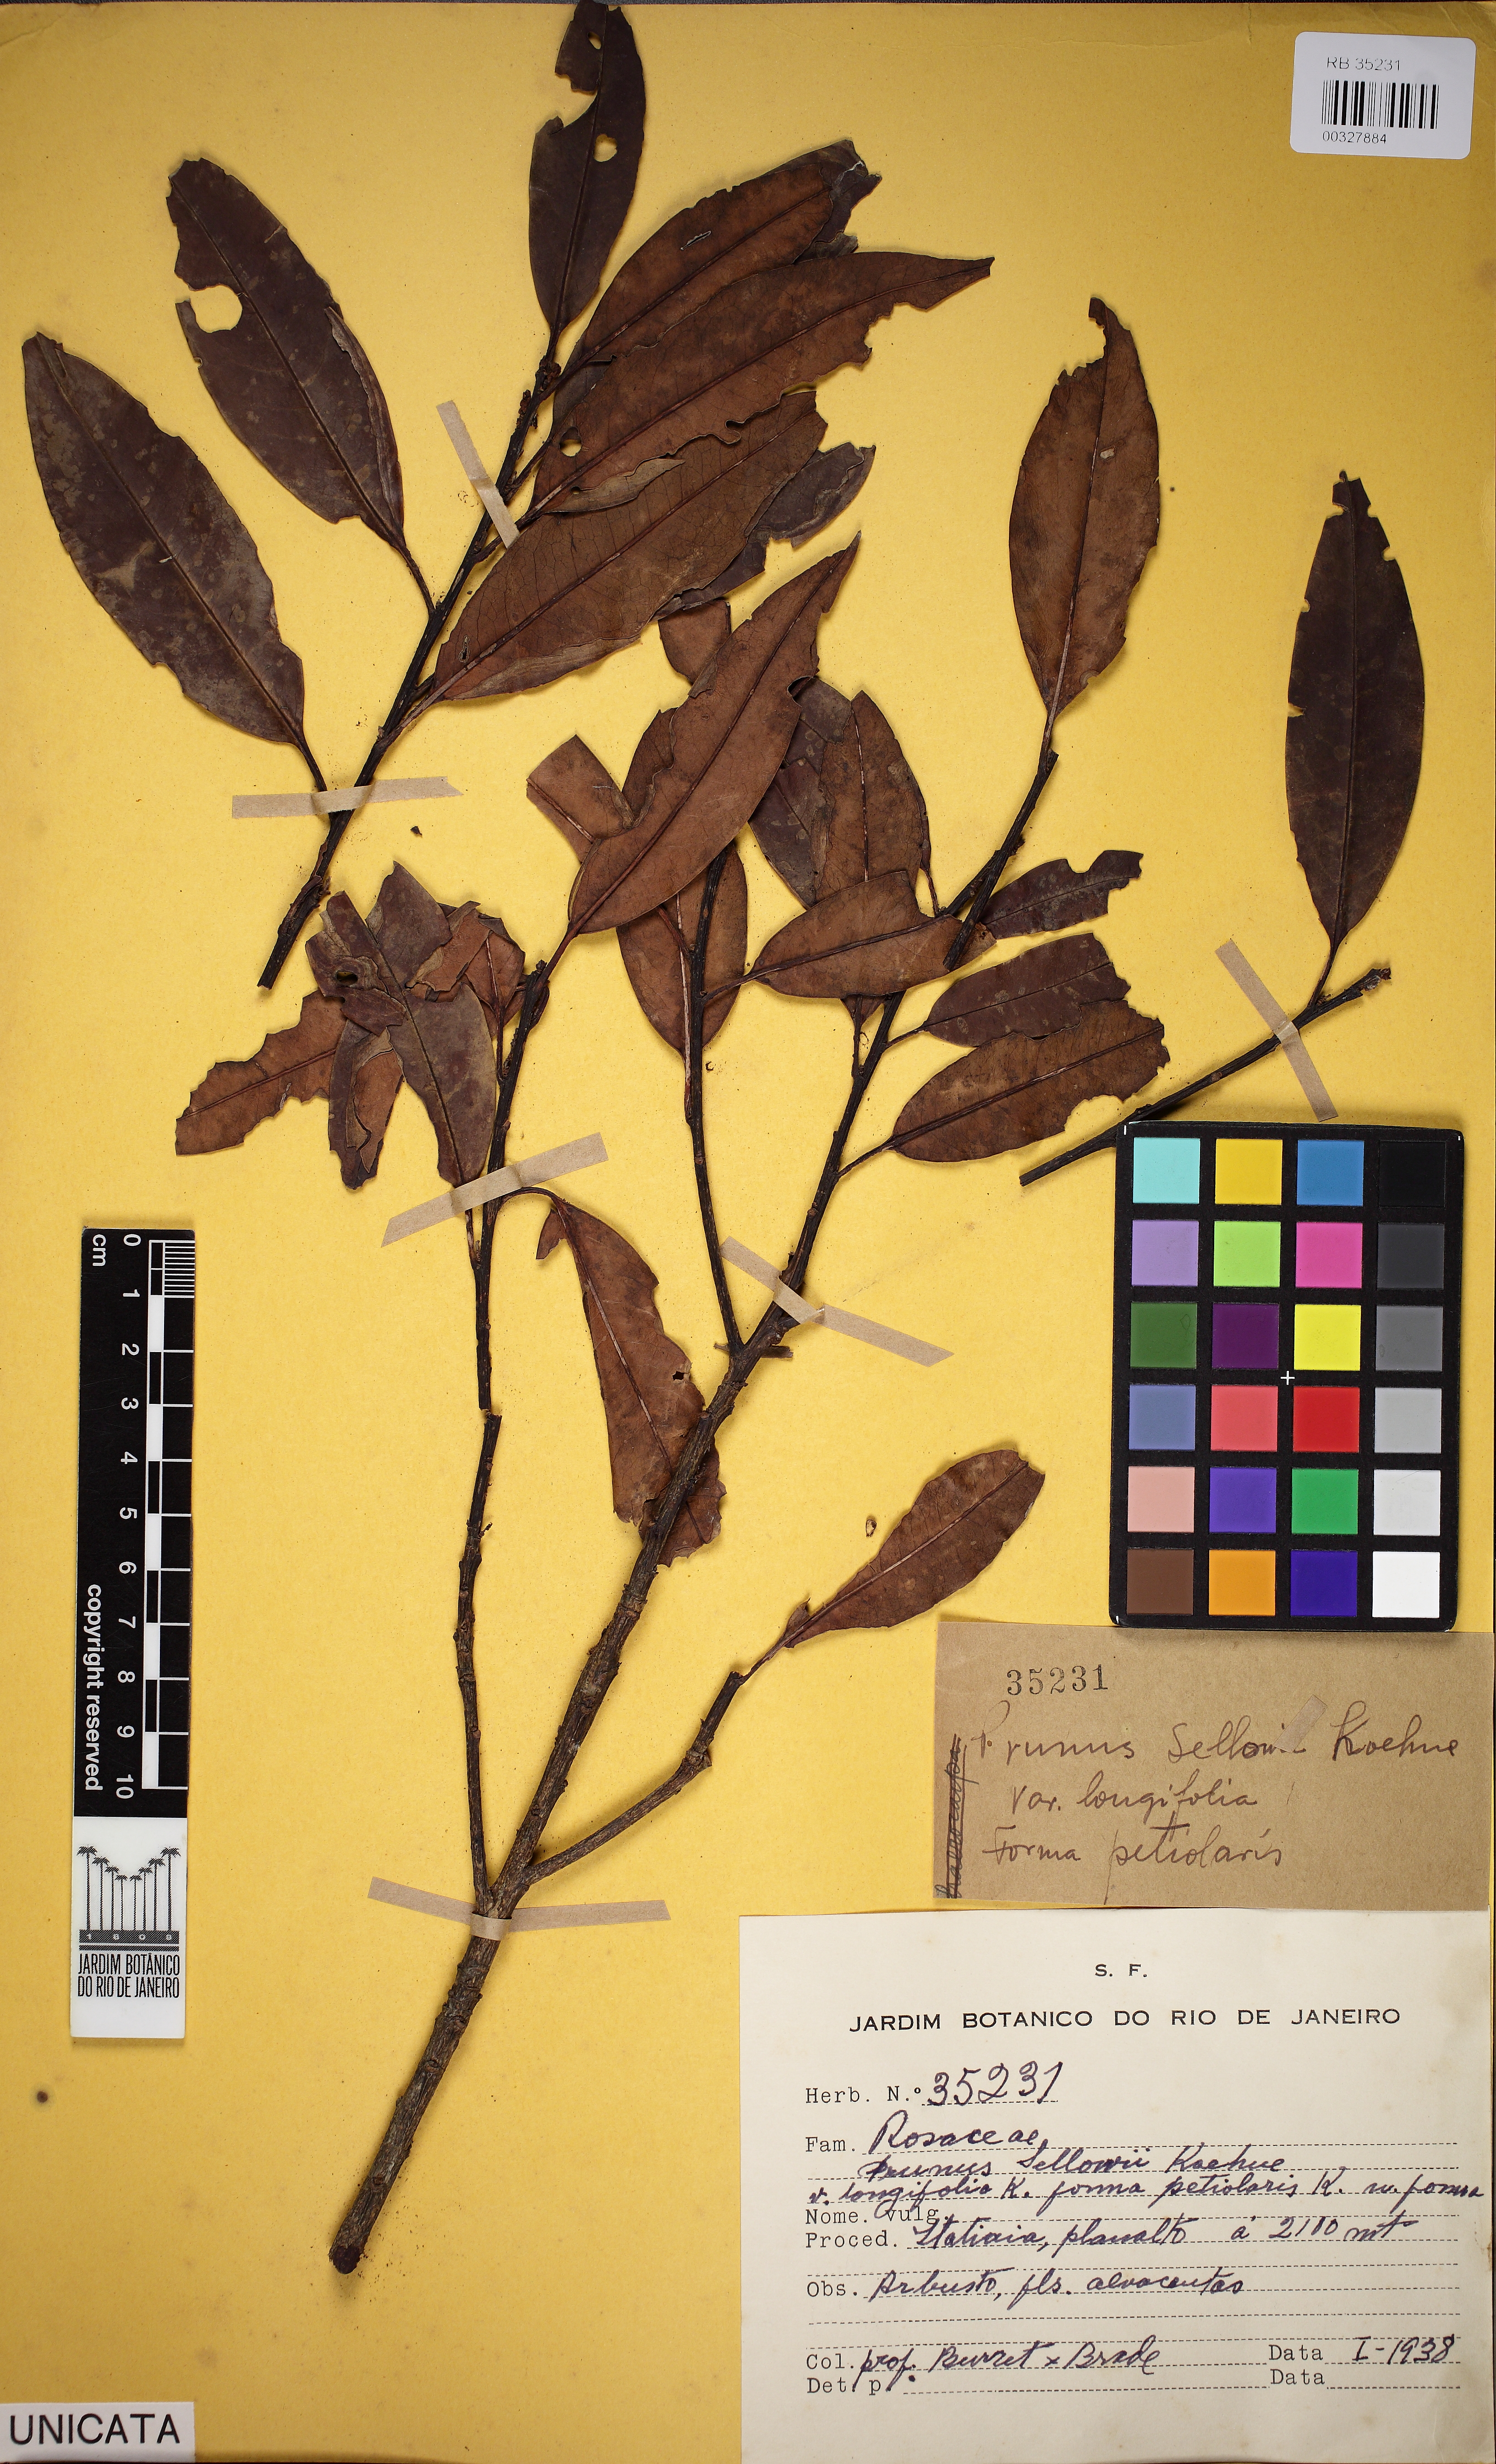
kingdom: Plantae
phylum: Tracheophyta
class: Magnoliopsida
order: Rosales
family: Rosaceae
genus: Prunus
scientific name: Prunus reflexa
